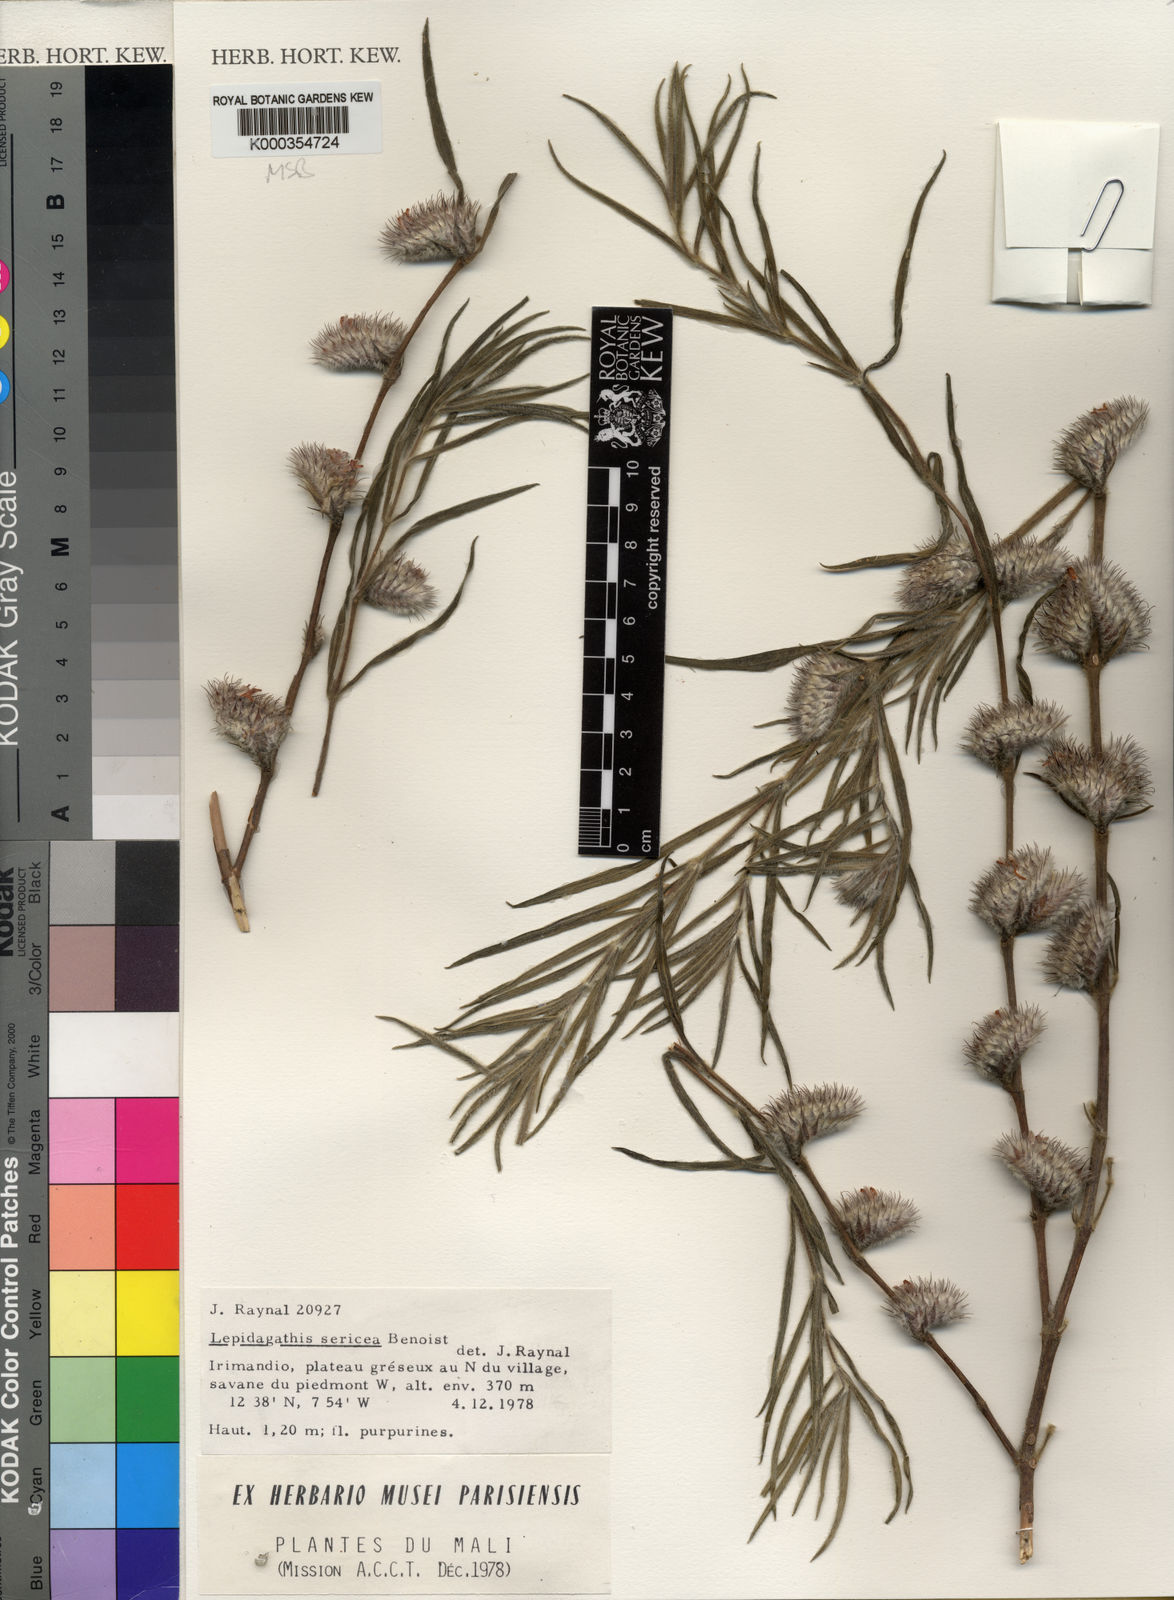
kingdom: Plantae
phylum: Tracheophyta
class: Magnoliopsida
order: Lamiales
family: Acanthaceae
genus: Lepidagathis
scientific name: Lepidagathis sericea
